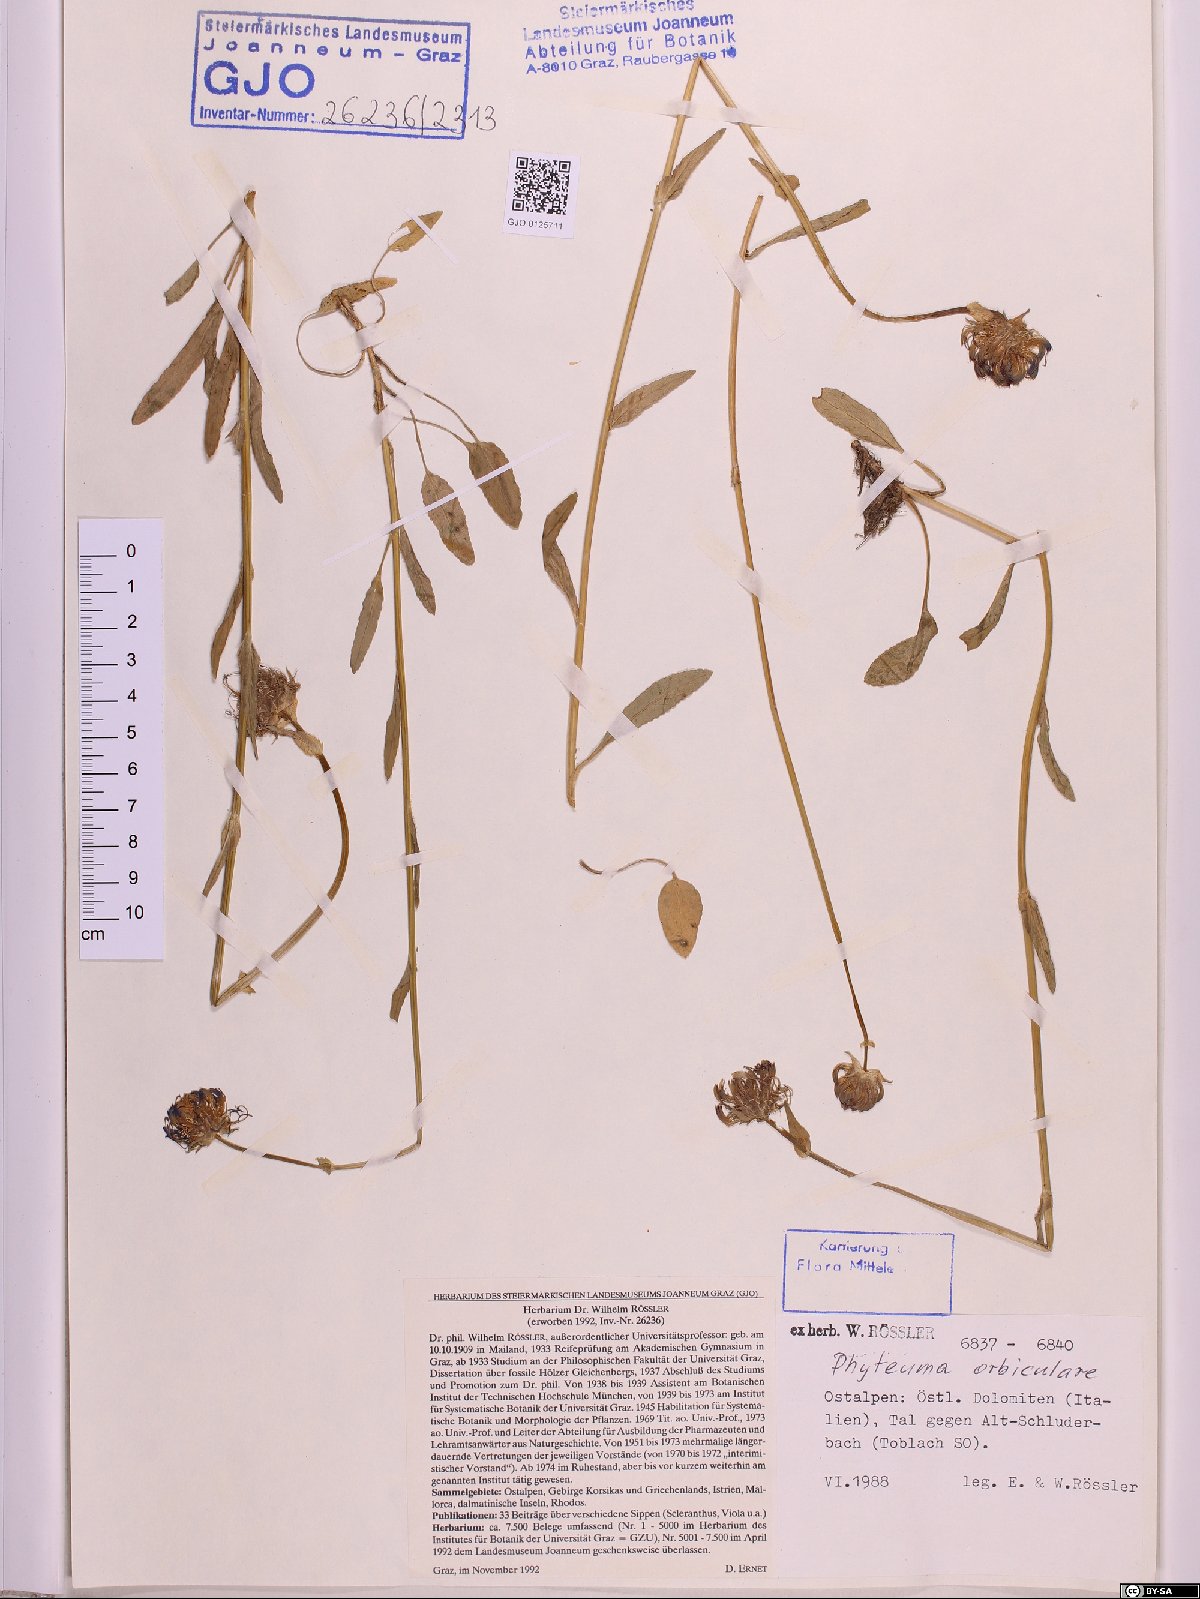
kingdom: Plantae
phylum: Tracheophyta
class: Magnoliopsida
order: Asterales
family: Campanulaceae
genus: Phyteuma
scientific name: Phyteuma orbiculare
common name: Round-headed rampion
